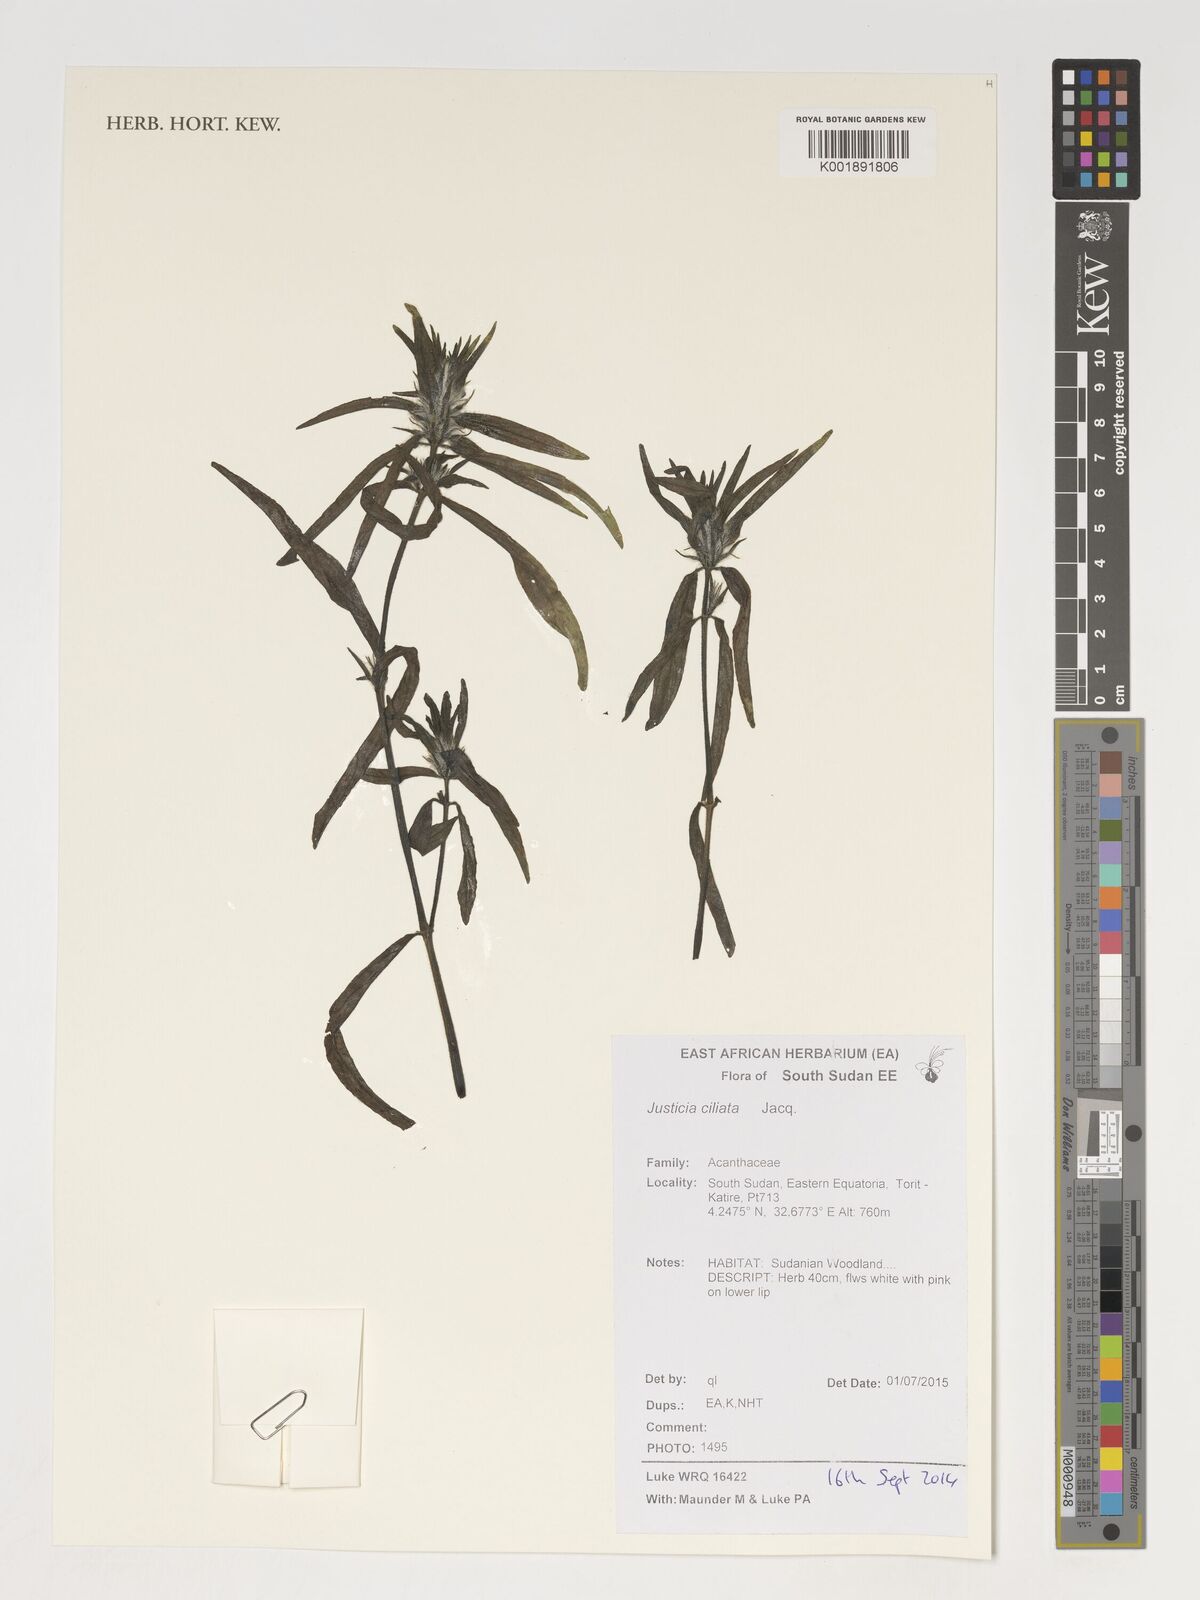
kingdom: Plantae
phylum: Tracheophyta
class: Magnoliopsida
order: Lamiales
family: Acanthaceae
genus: Pogonospermum
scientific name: Pogonospermum ciliare
